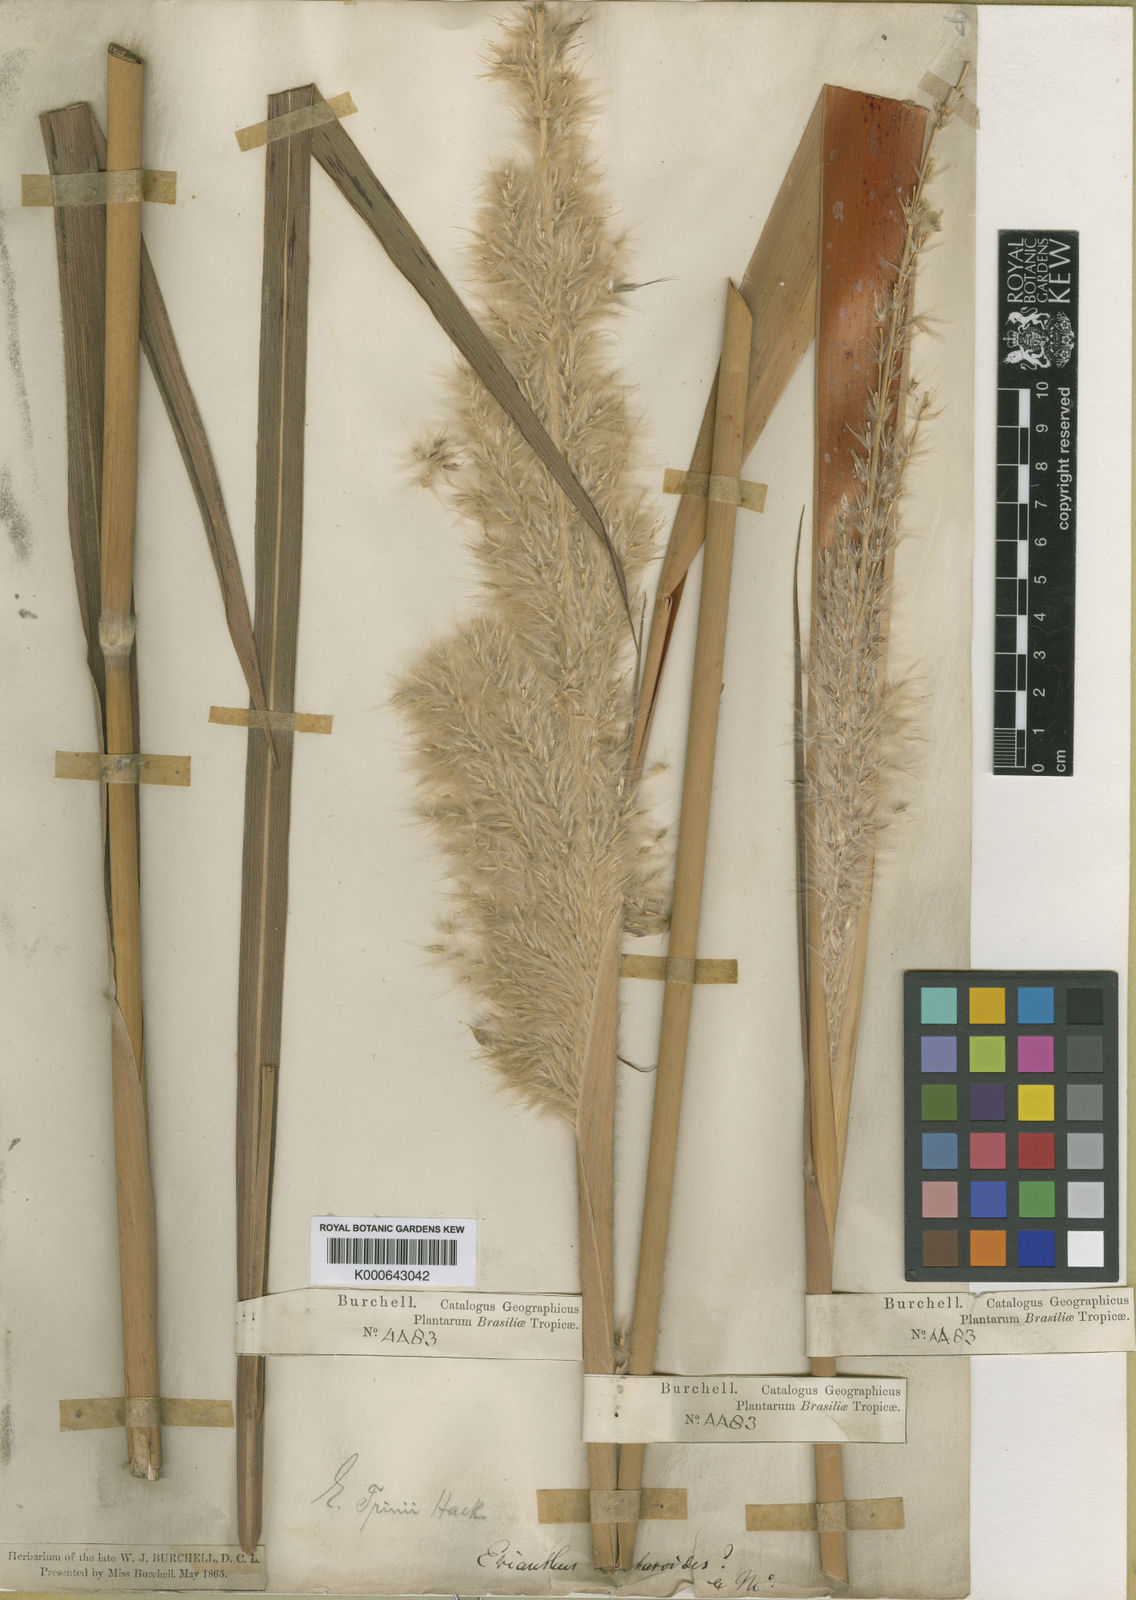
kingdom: Plantae
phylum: Tracheophyta
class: Liliopsida
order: Poales
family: Poaceae
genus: Erianthus
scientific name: Erianthus trinii
